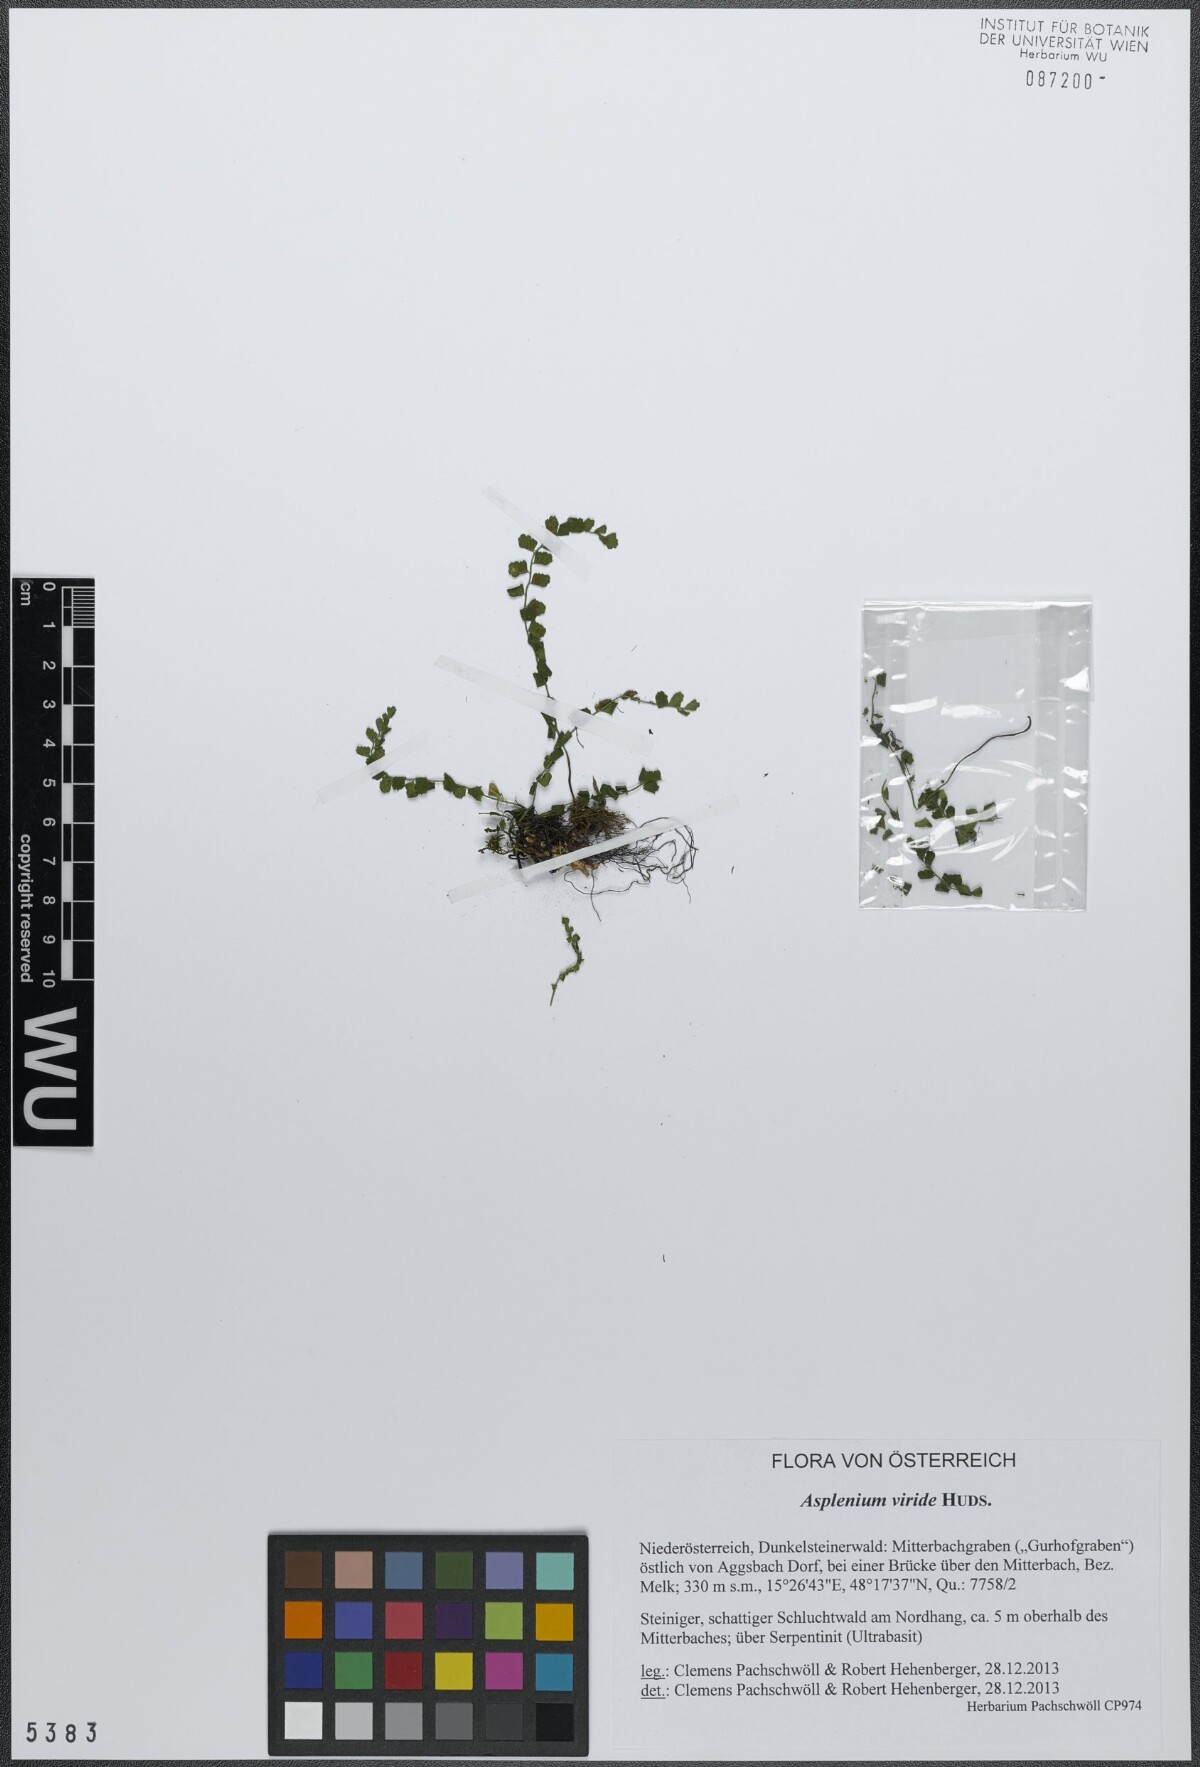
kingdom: Plantae
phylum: Tracheophyta
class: Polypodiopsida
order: Polypodiales
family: Aspleniaceae
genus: Asplenium
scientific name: Asplenium viride
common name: Green spleenwort
